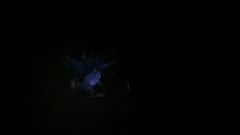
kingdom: Animalia
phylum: Chordata
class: Amphibia
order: Anura
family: Bufonidae
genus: Bufotes
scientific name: Bufotes viridis
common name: European green toad
